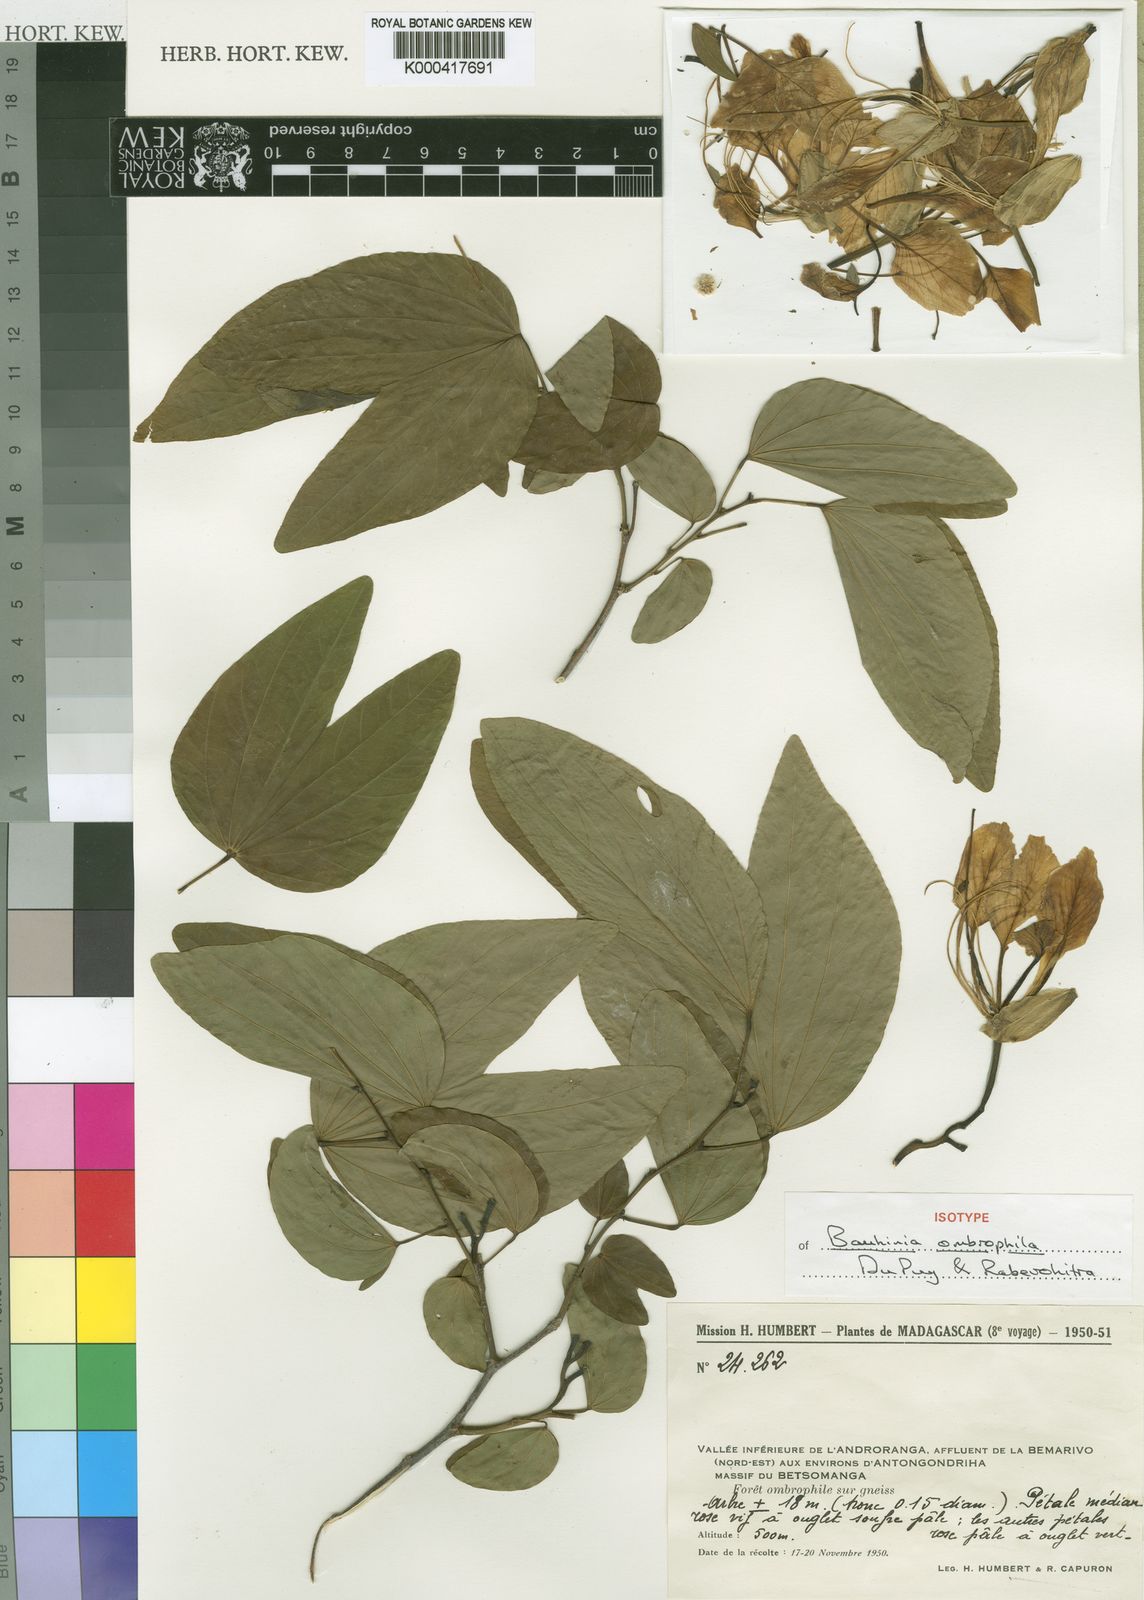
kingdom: Plantae
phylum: Tracheophyta
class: Magnoliopsida
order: Fabales
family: Fabaceae
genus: Bauhinia
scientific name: Bauhinia ombrophila
